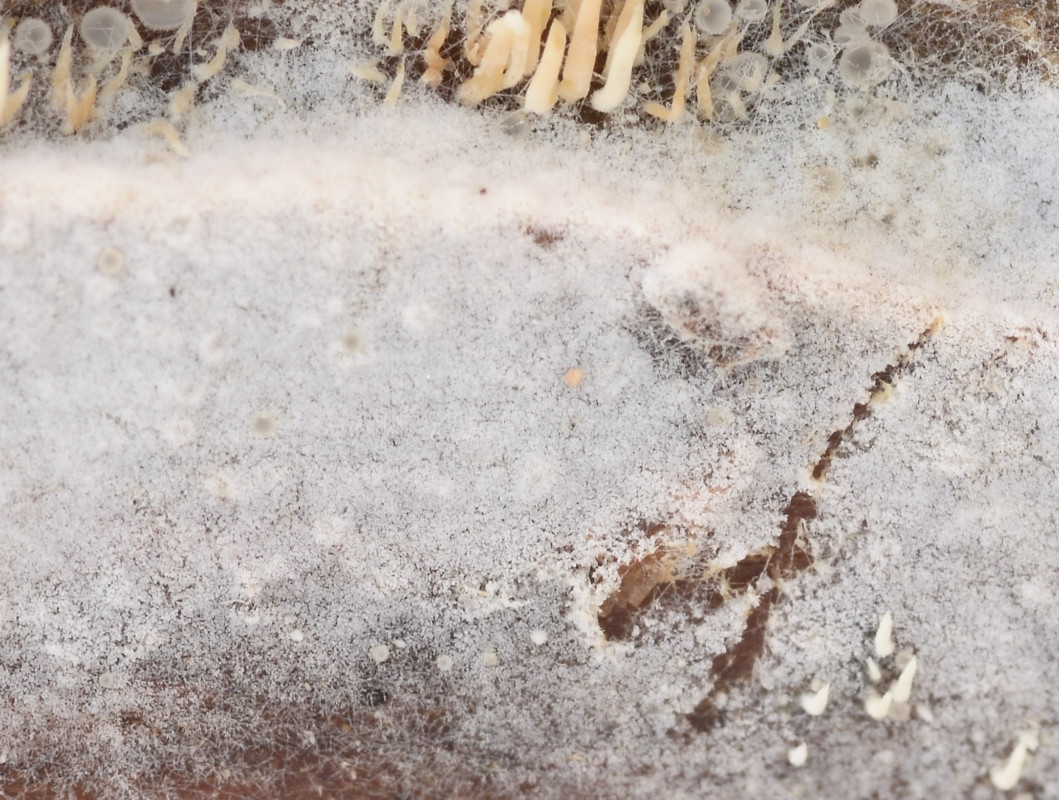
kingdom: Fungi
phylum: Basidiomycota
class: Agaricomycetes
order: Atheliales
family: Atheliaceae
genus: Athelia
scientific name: Athelia epiphylla
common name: almindelig barkhinde
